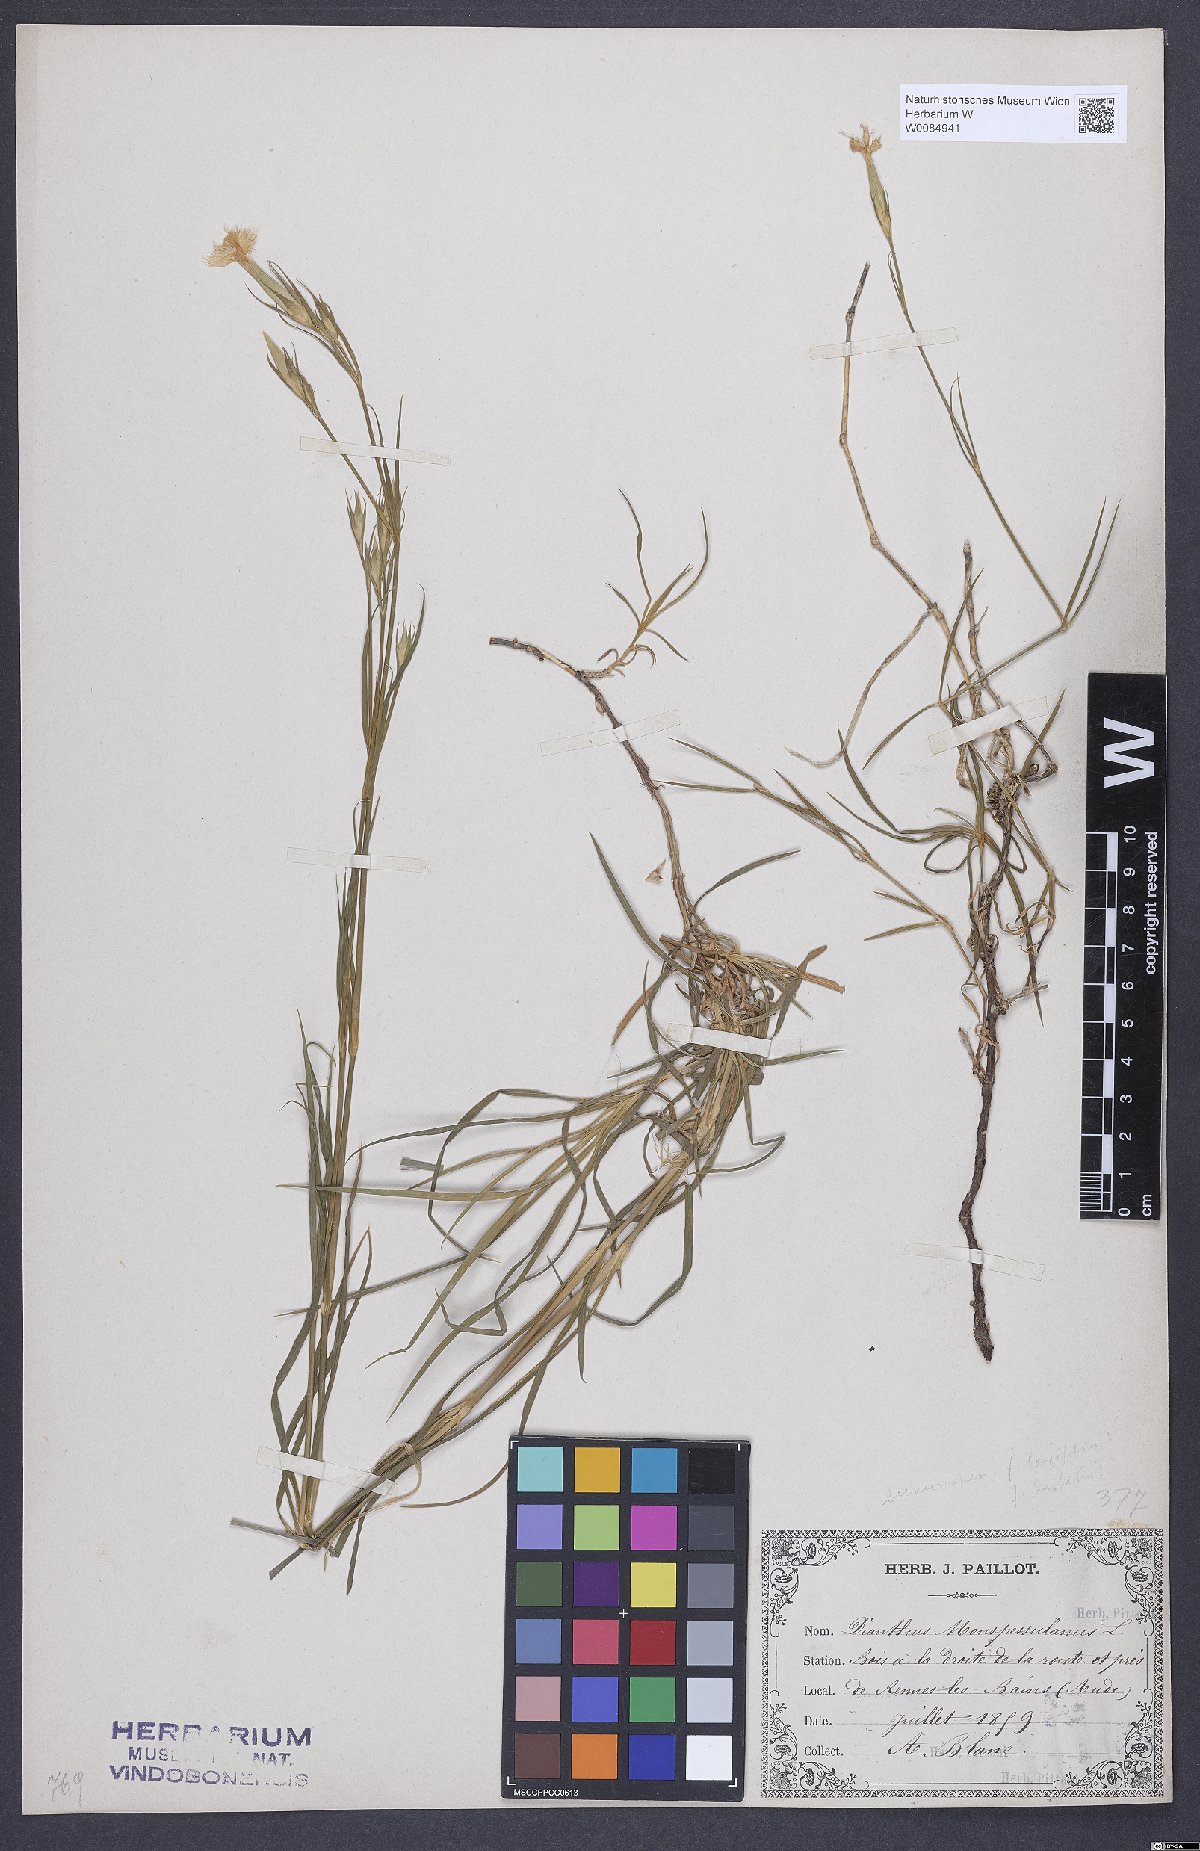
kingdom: Plantae
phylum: Tracheophyta
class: Magnoliopsida
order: Caryophyllales
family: Caryophyllaceae
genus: Dianthus
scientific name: Dianthus hyssopifolius
